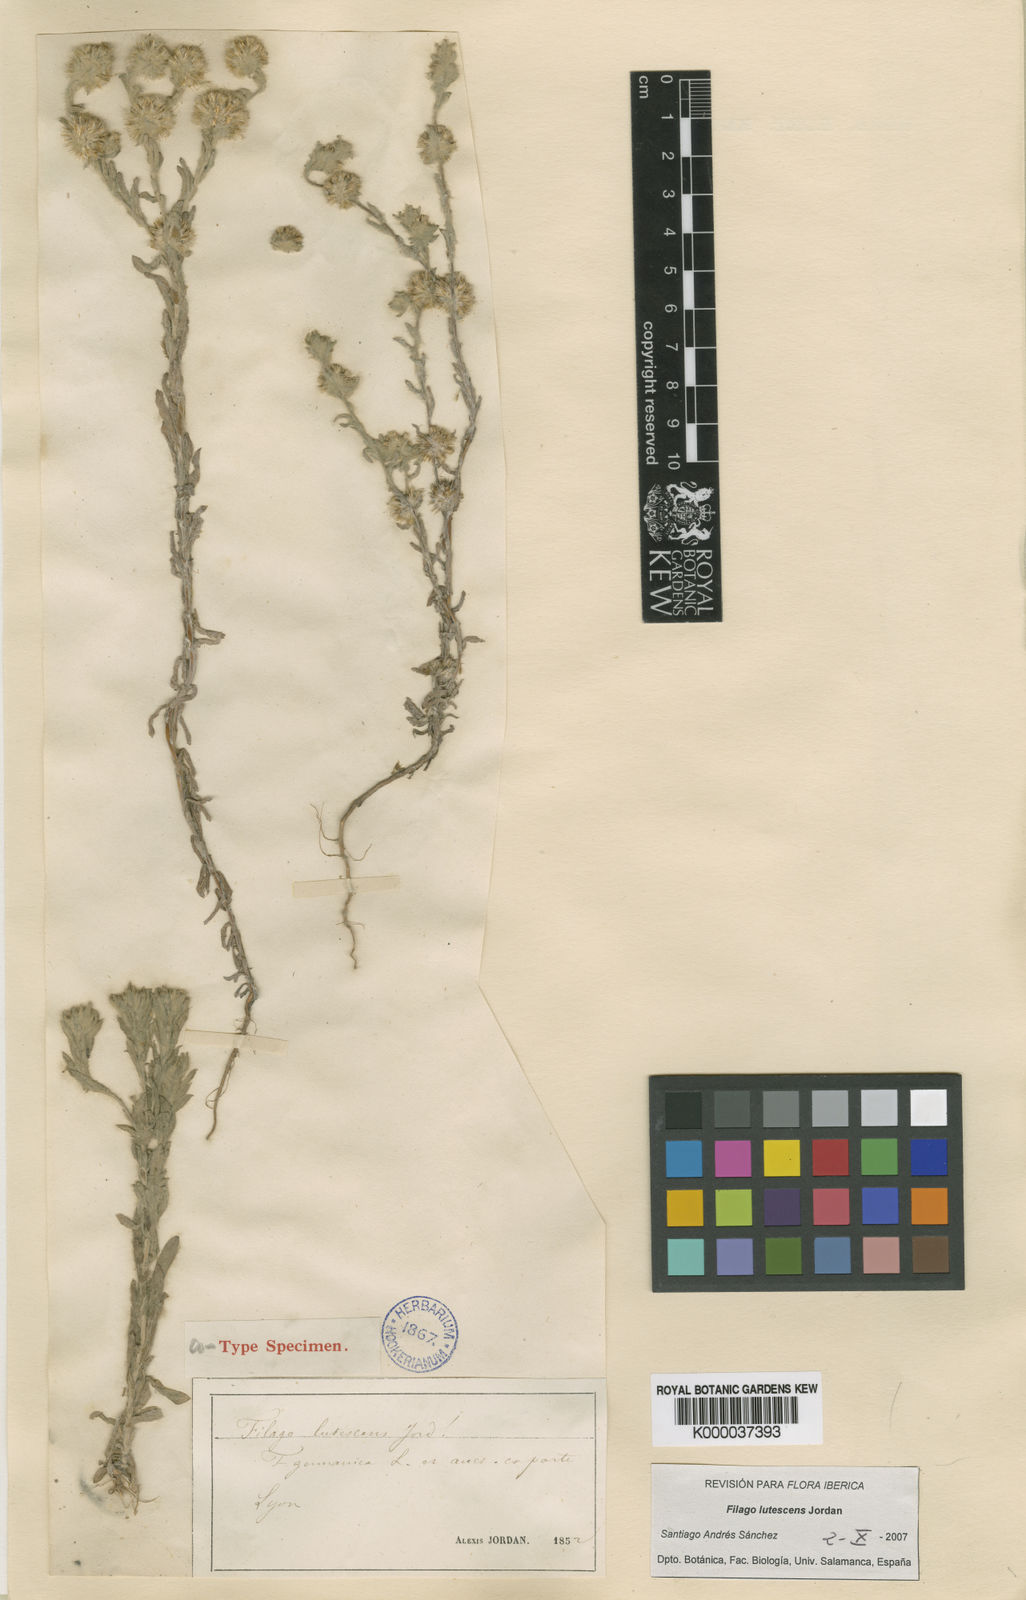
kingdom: Plantae
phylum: Tracheophyta
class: Magnoliopsida
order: Asterales
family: Asteraceae
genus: Filago
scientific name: Filago lutescens
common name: Red-tipped cudweed
